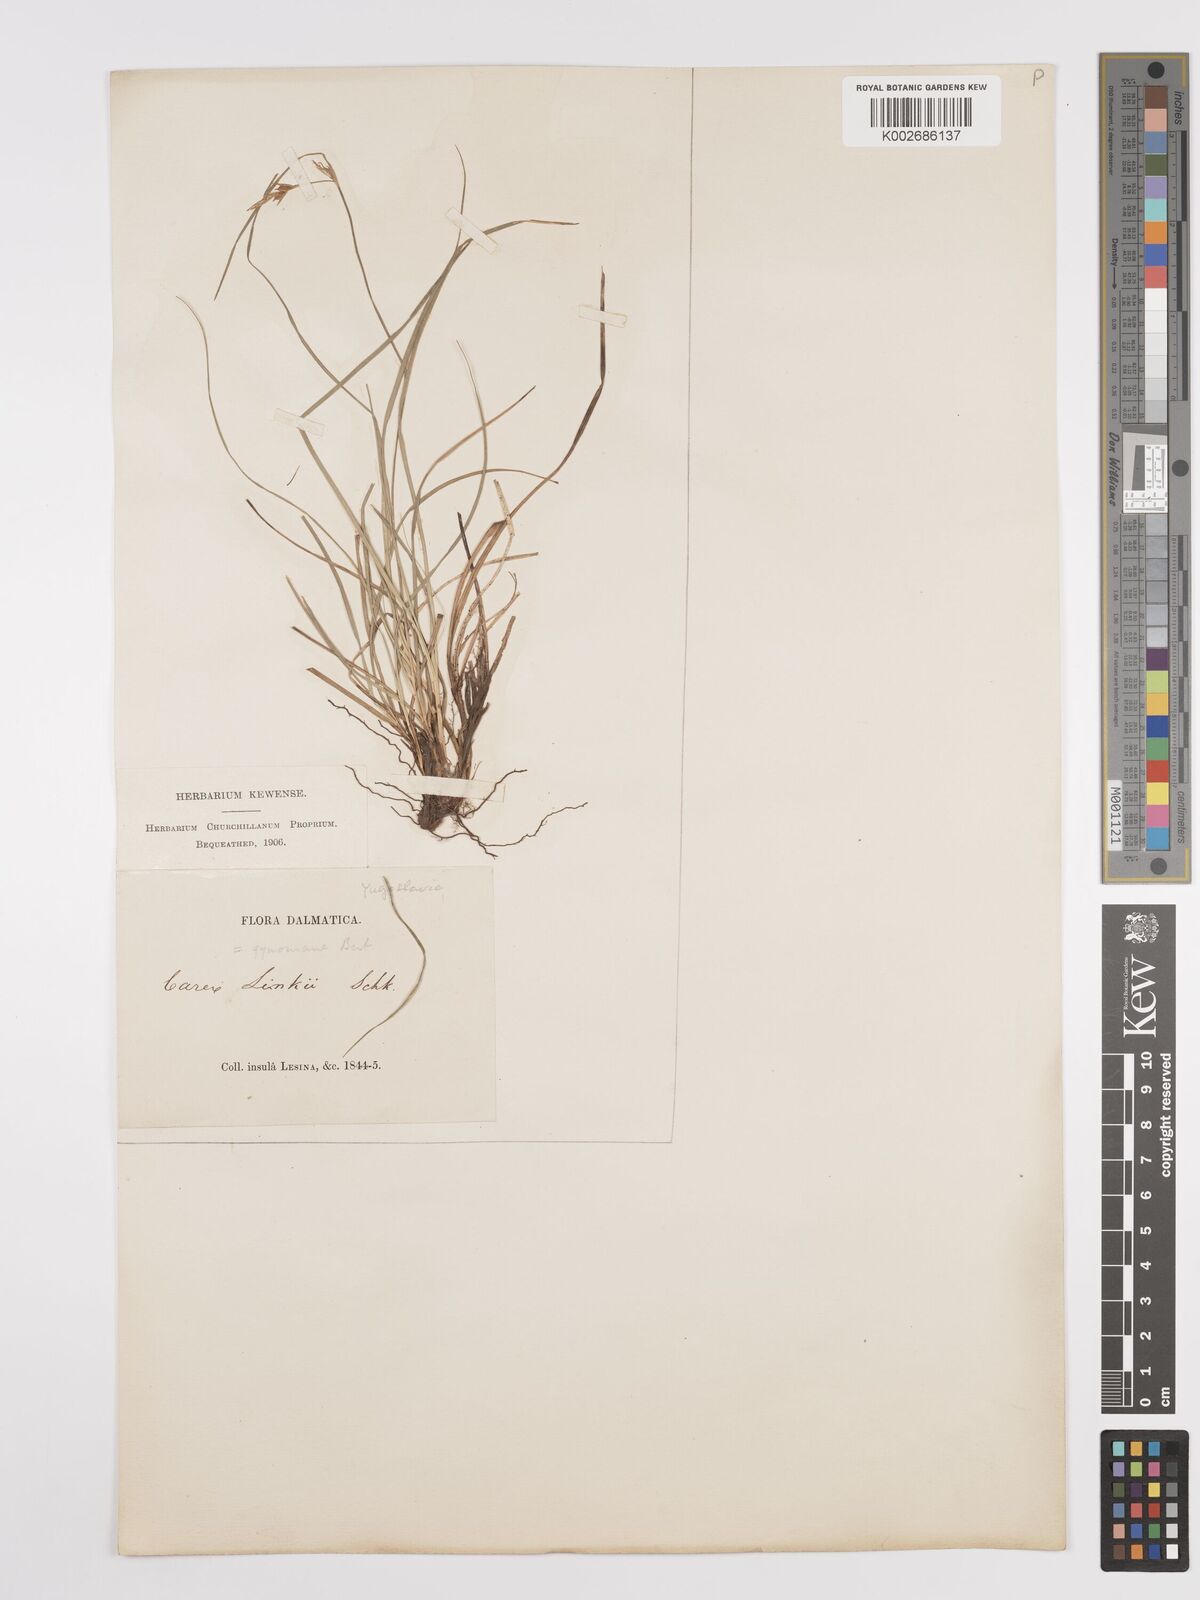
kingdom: Plantae
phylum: Tracheophyta
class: Liliopsida
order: Poales
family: Cyperaceae
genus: Carex
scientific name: Carex distachya
